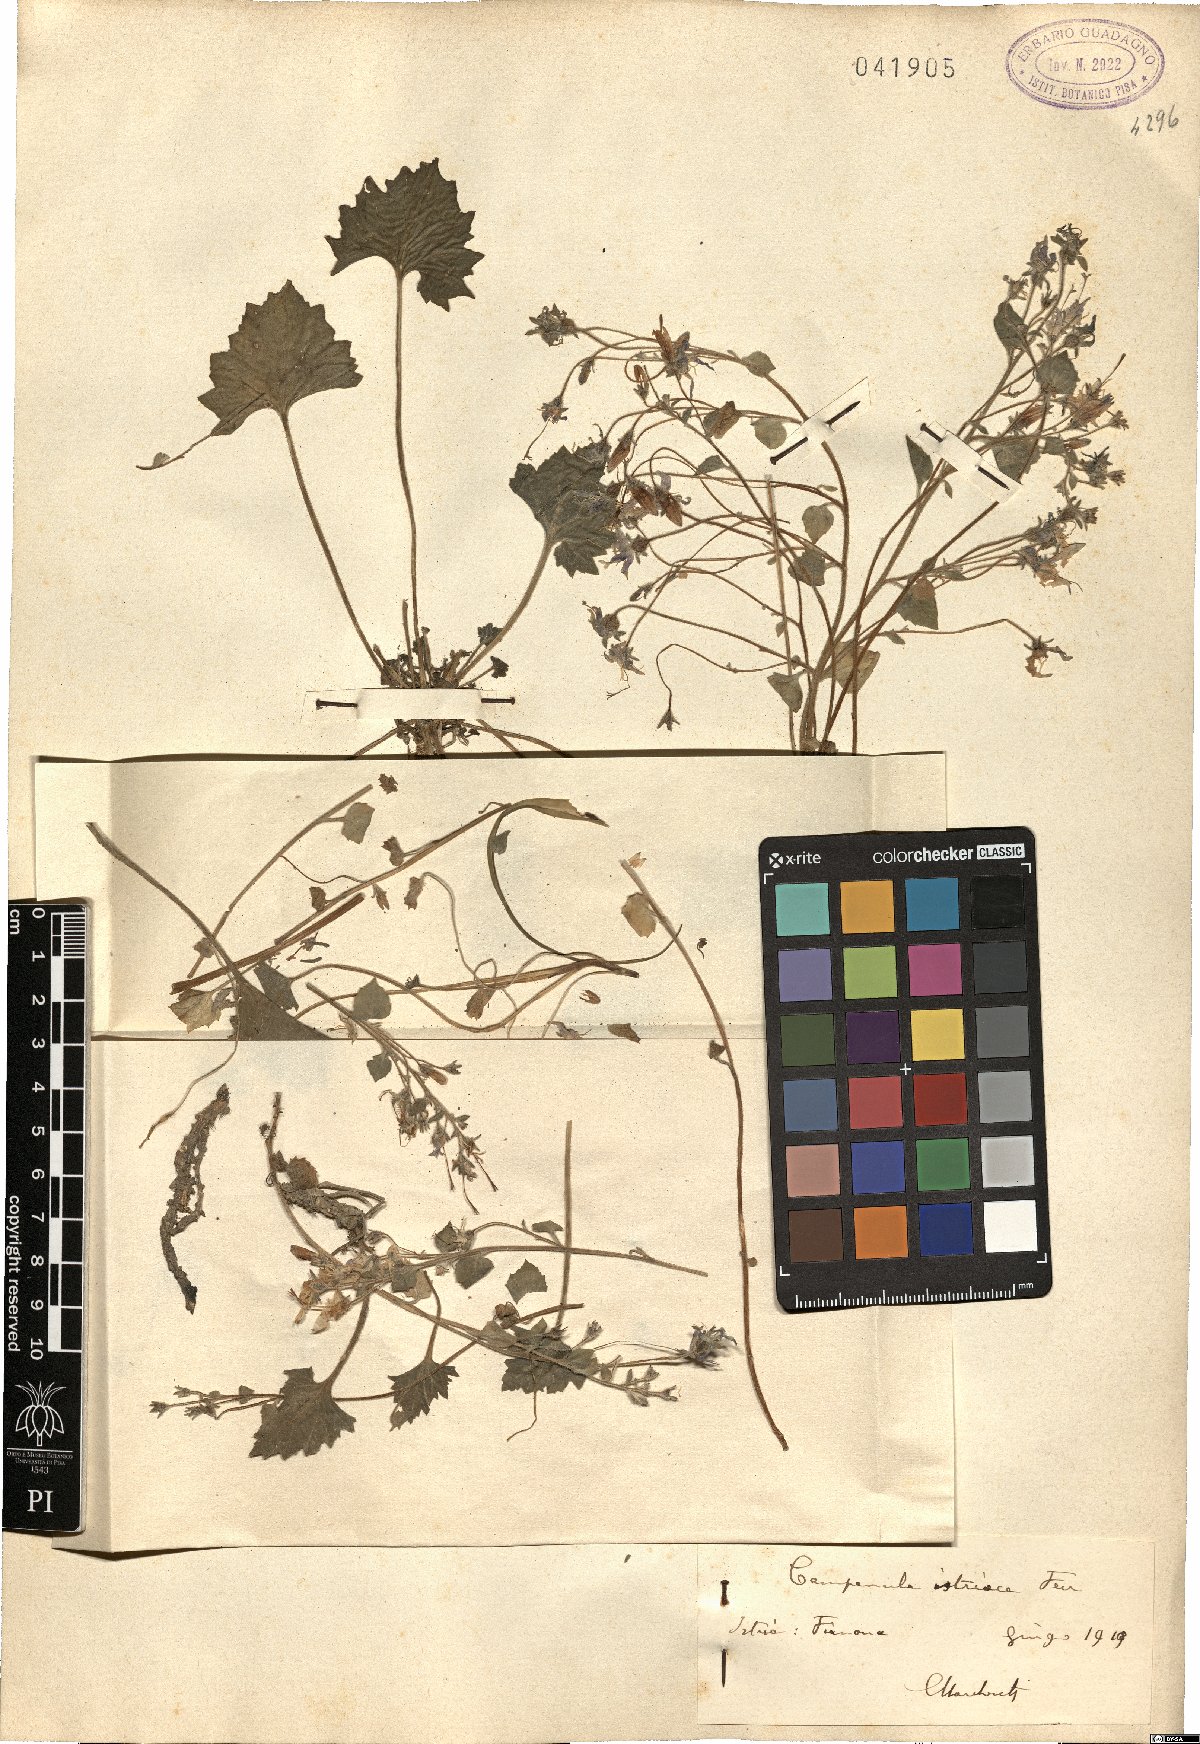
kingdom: Plantae
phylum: Tracheophyta
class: Magnoliopsida
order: Asterales
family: Campanulaceae
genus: Campanula
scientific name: Campanula fenestrellata
